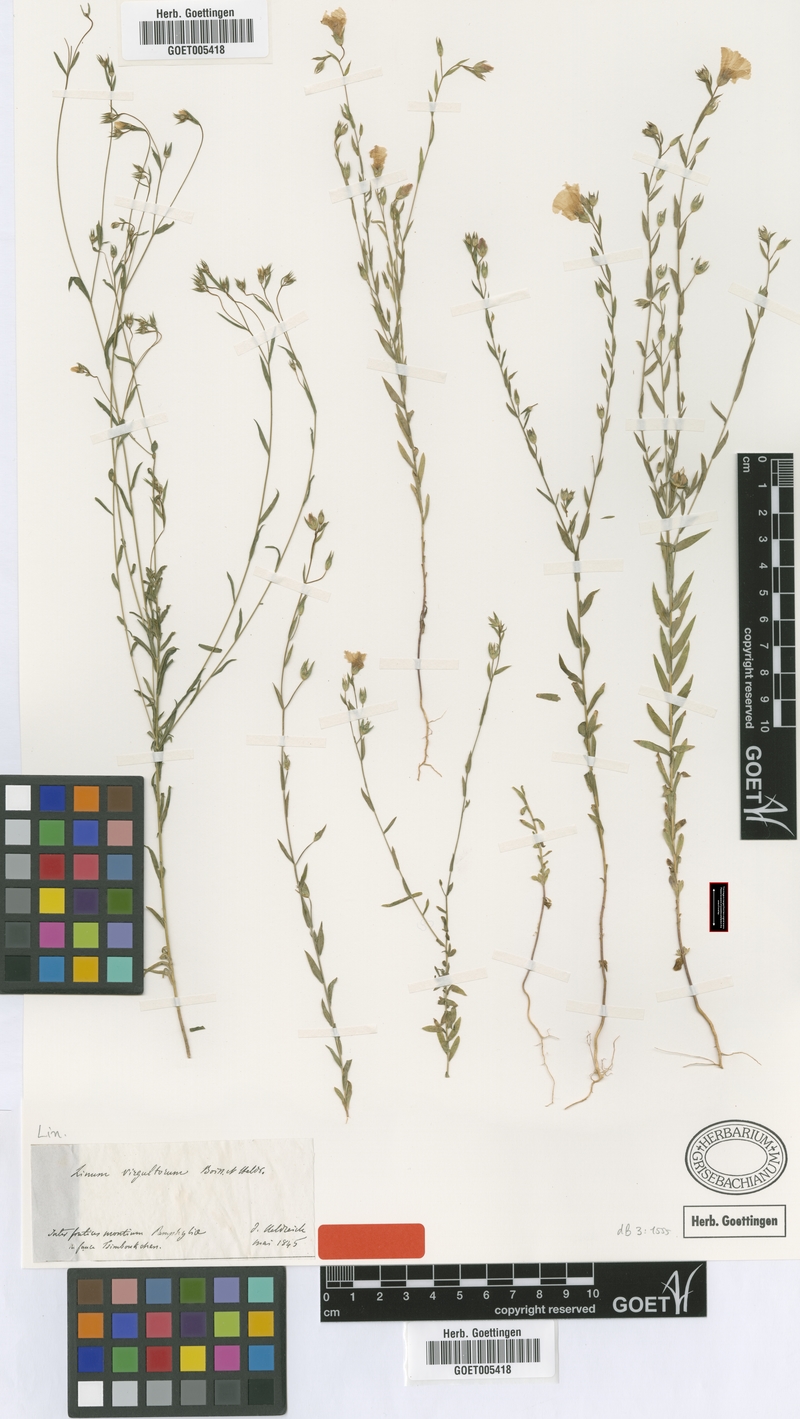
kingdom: Plantae
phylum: Tracheophyta
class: Magnoliopsida
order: Malpighiales
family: Linaceae
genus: Linum
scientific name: Linum virgultorum
